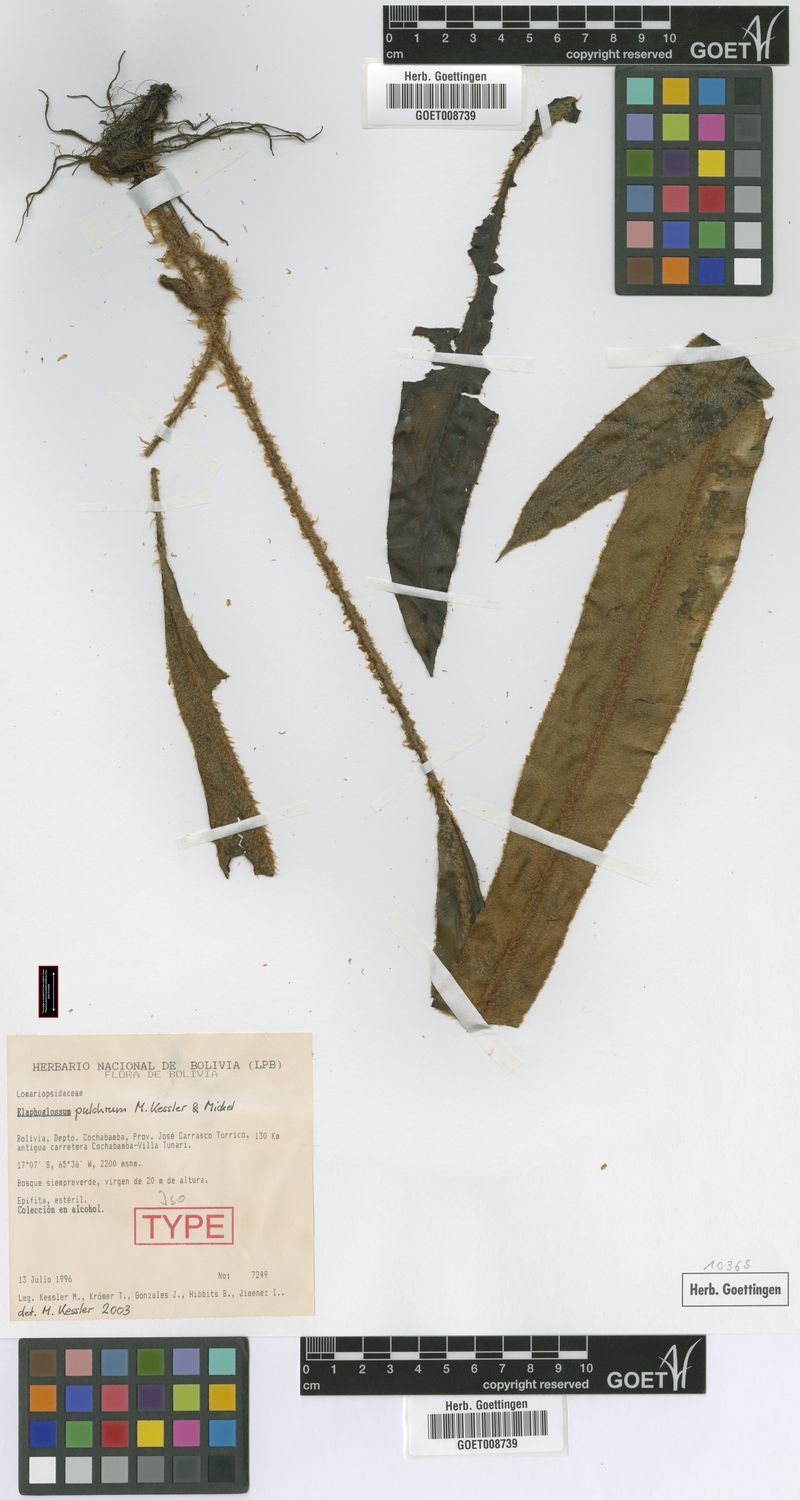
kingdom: Plantae
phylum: Tracheophyta
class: Polypodiopsida
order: Polypodiales
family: Dryopteridaceae
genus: Elaphoglossum
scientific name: Elaphoglossum pulchrum
